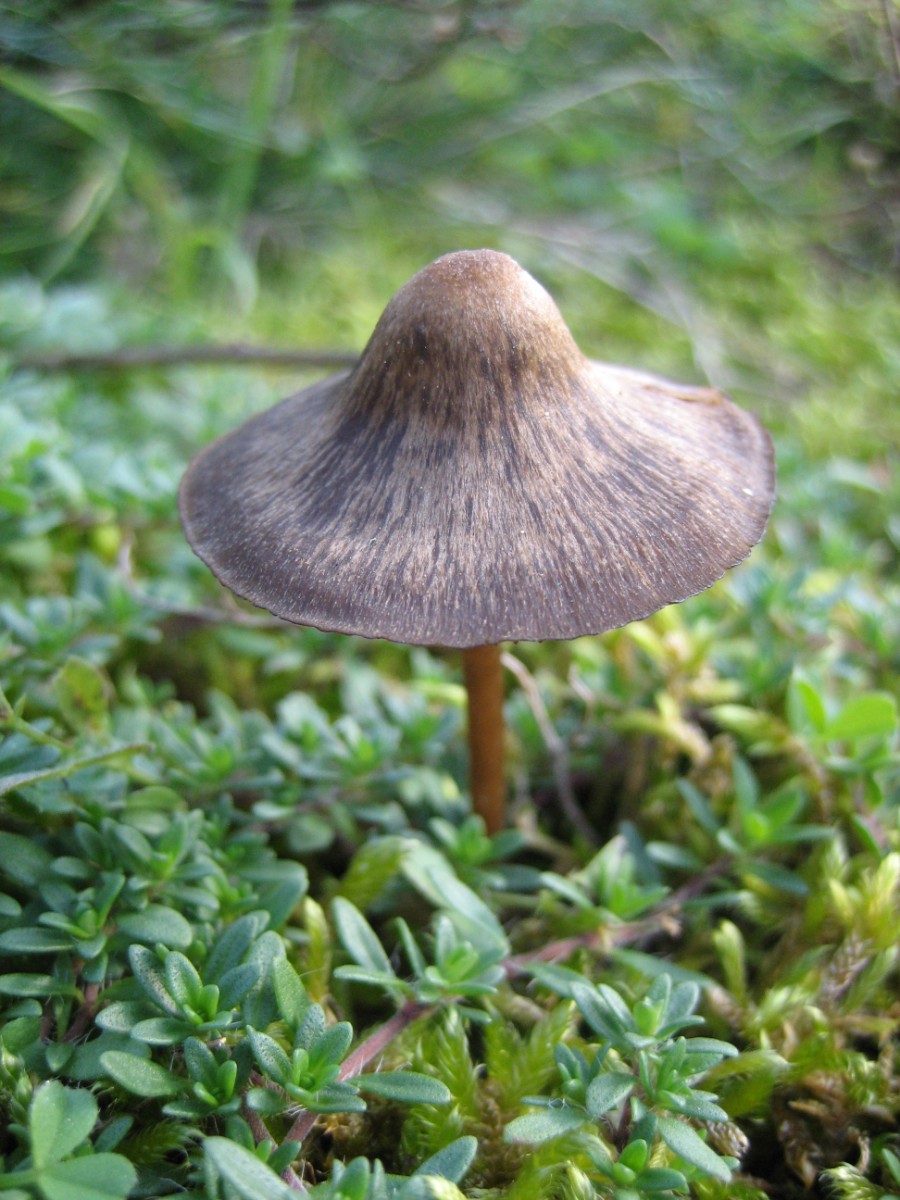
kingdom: Fungi
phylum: Basidiomycota
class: Agaricomycetes
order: Agaricales
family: Entolomataceae
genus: Entoloma
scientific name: Entoloma
